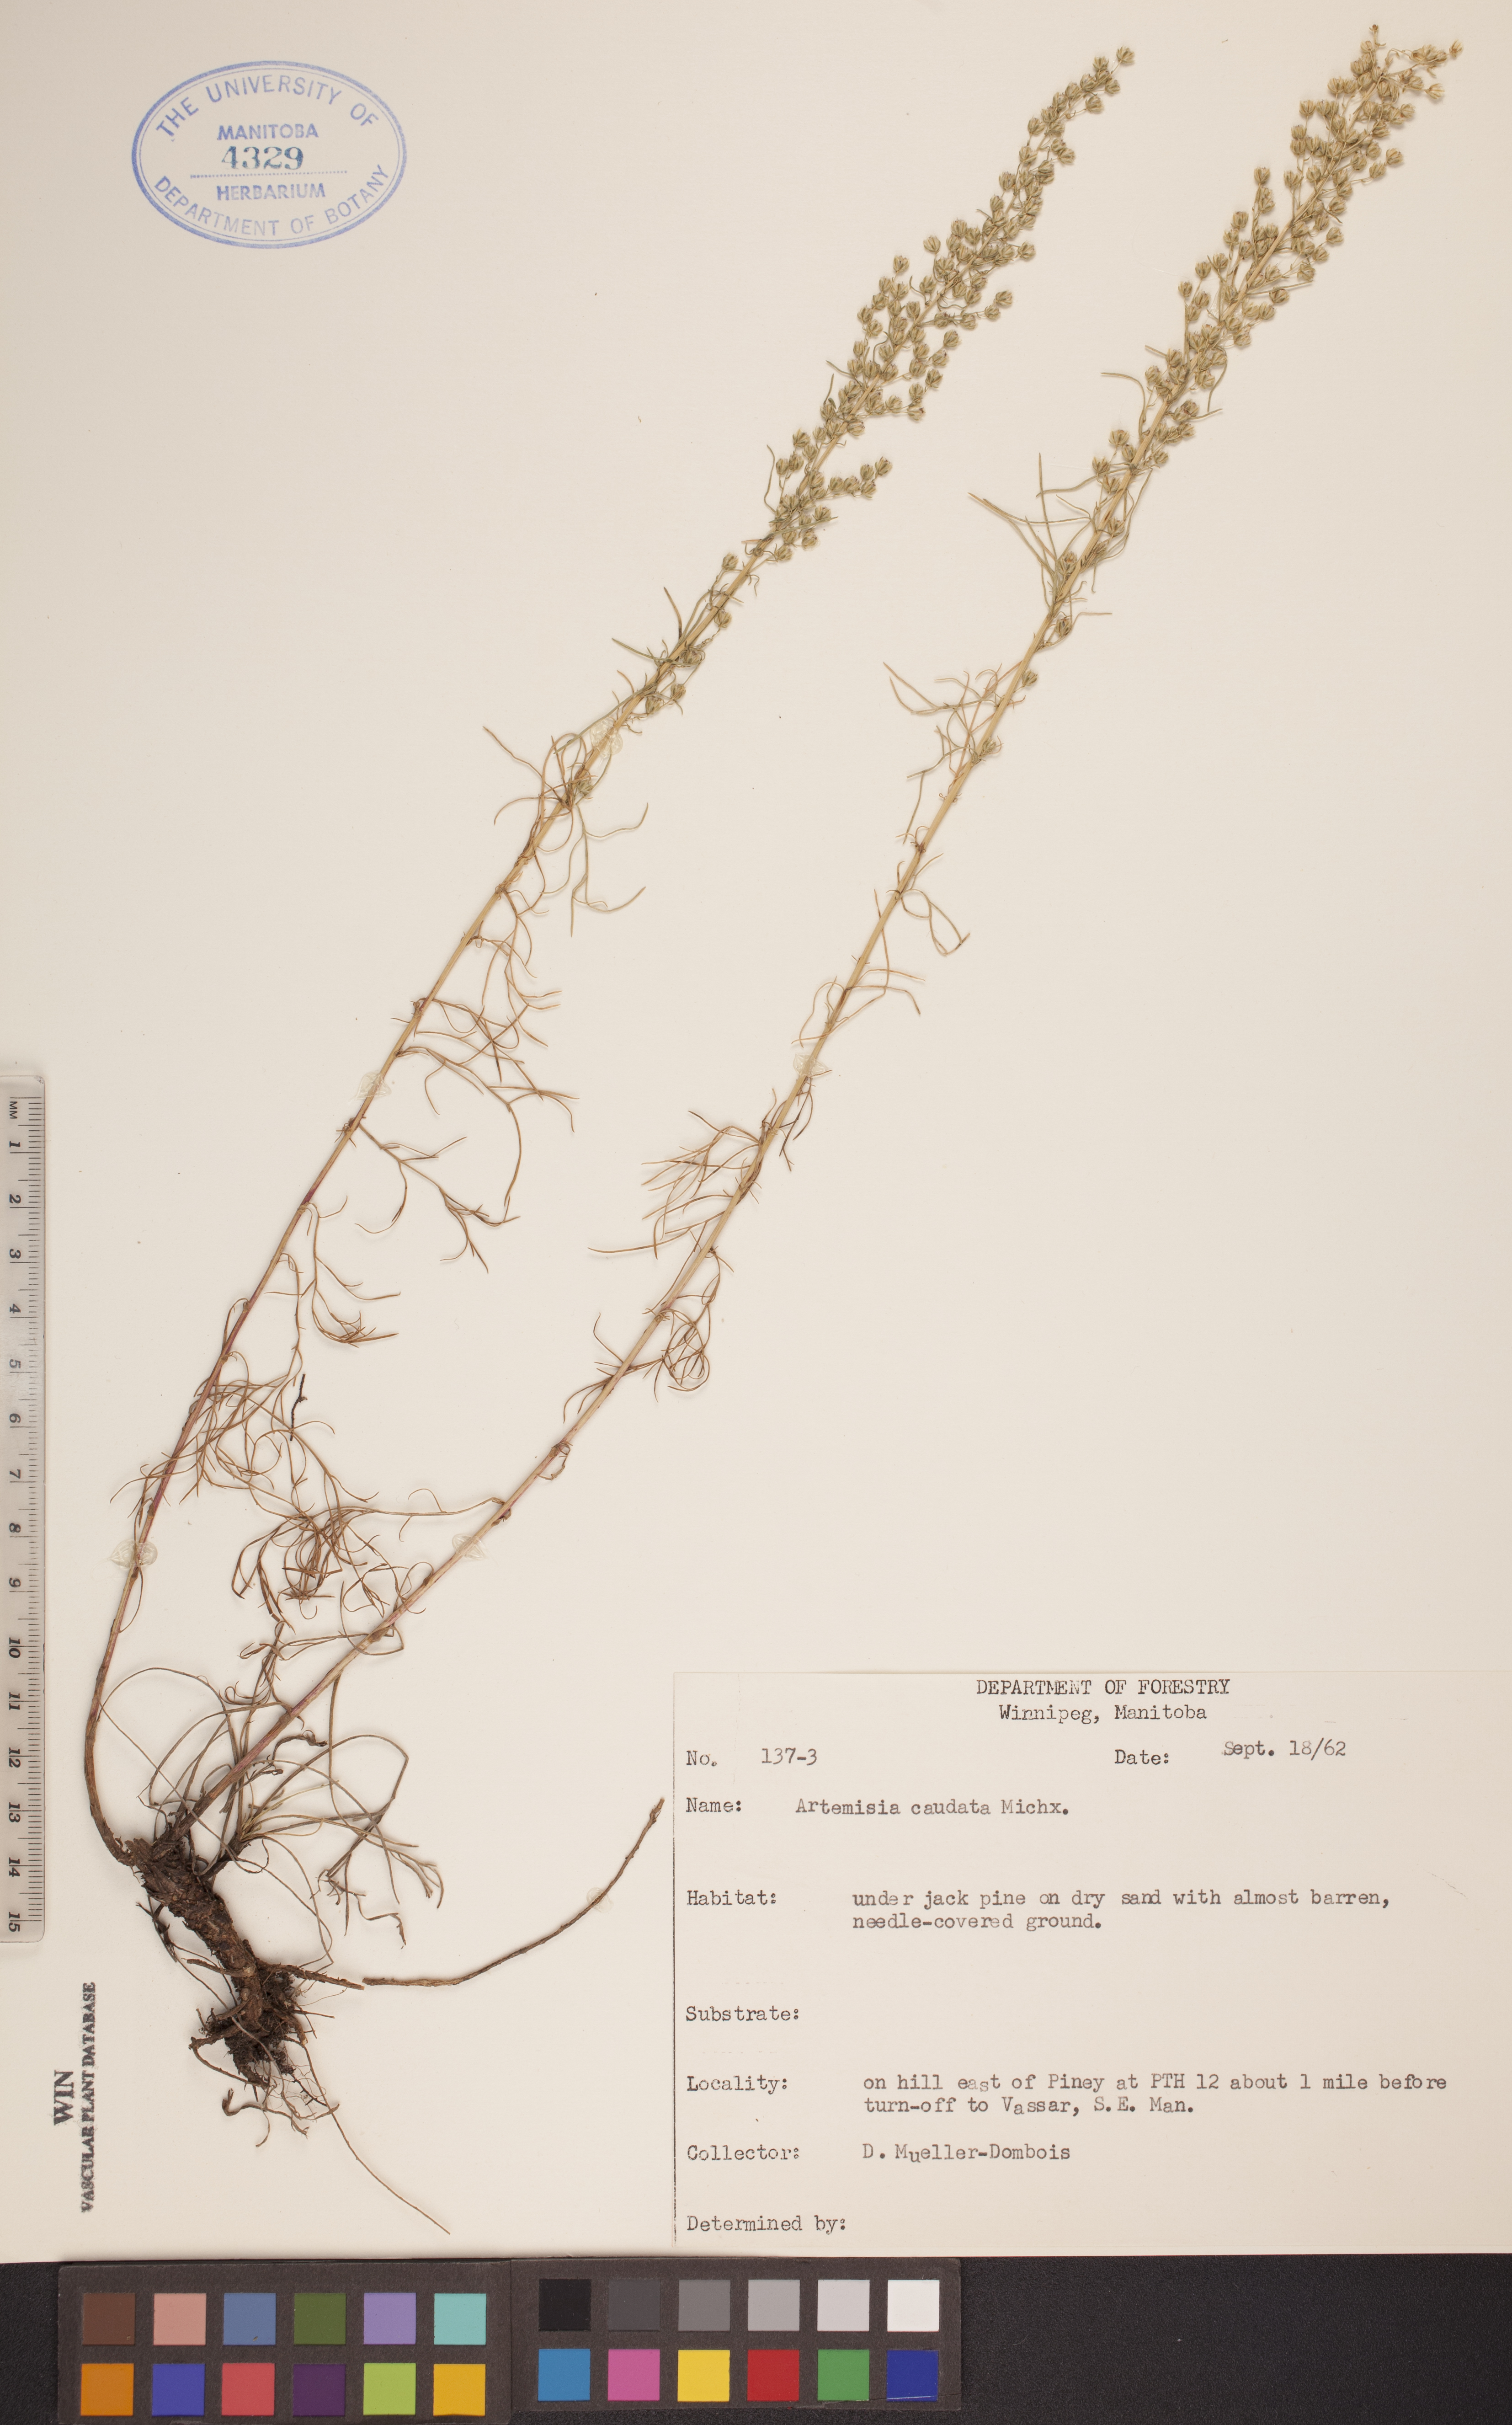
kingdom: Plantae
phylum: Tracheophyta
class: Magnoliopsida
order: Asterales
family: Asteraceae
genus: Artemisia
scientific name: Artemisia campestris
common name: Field wormwood
